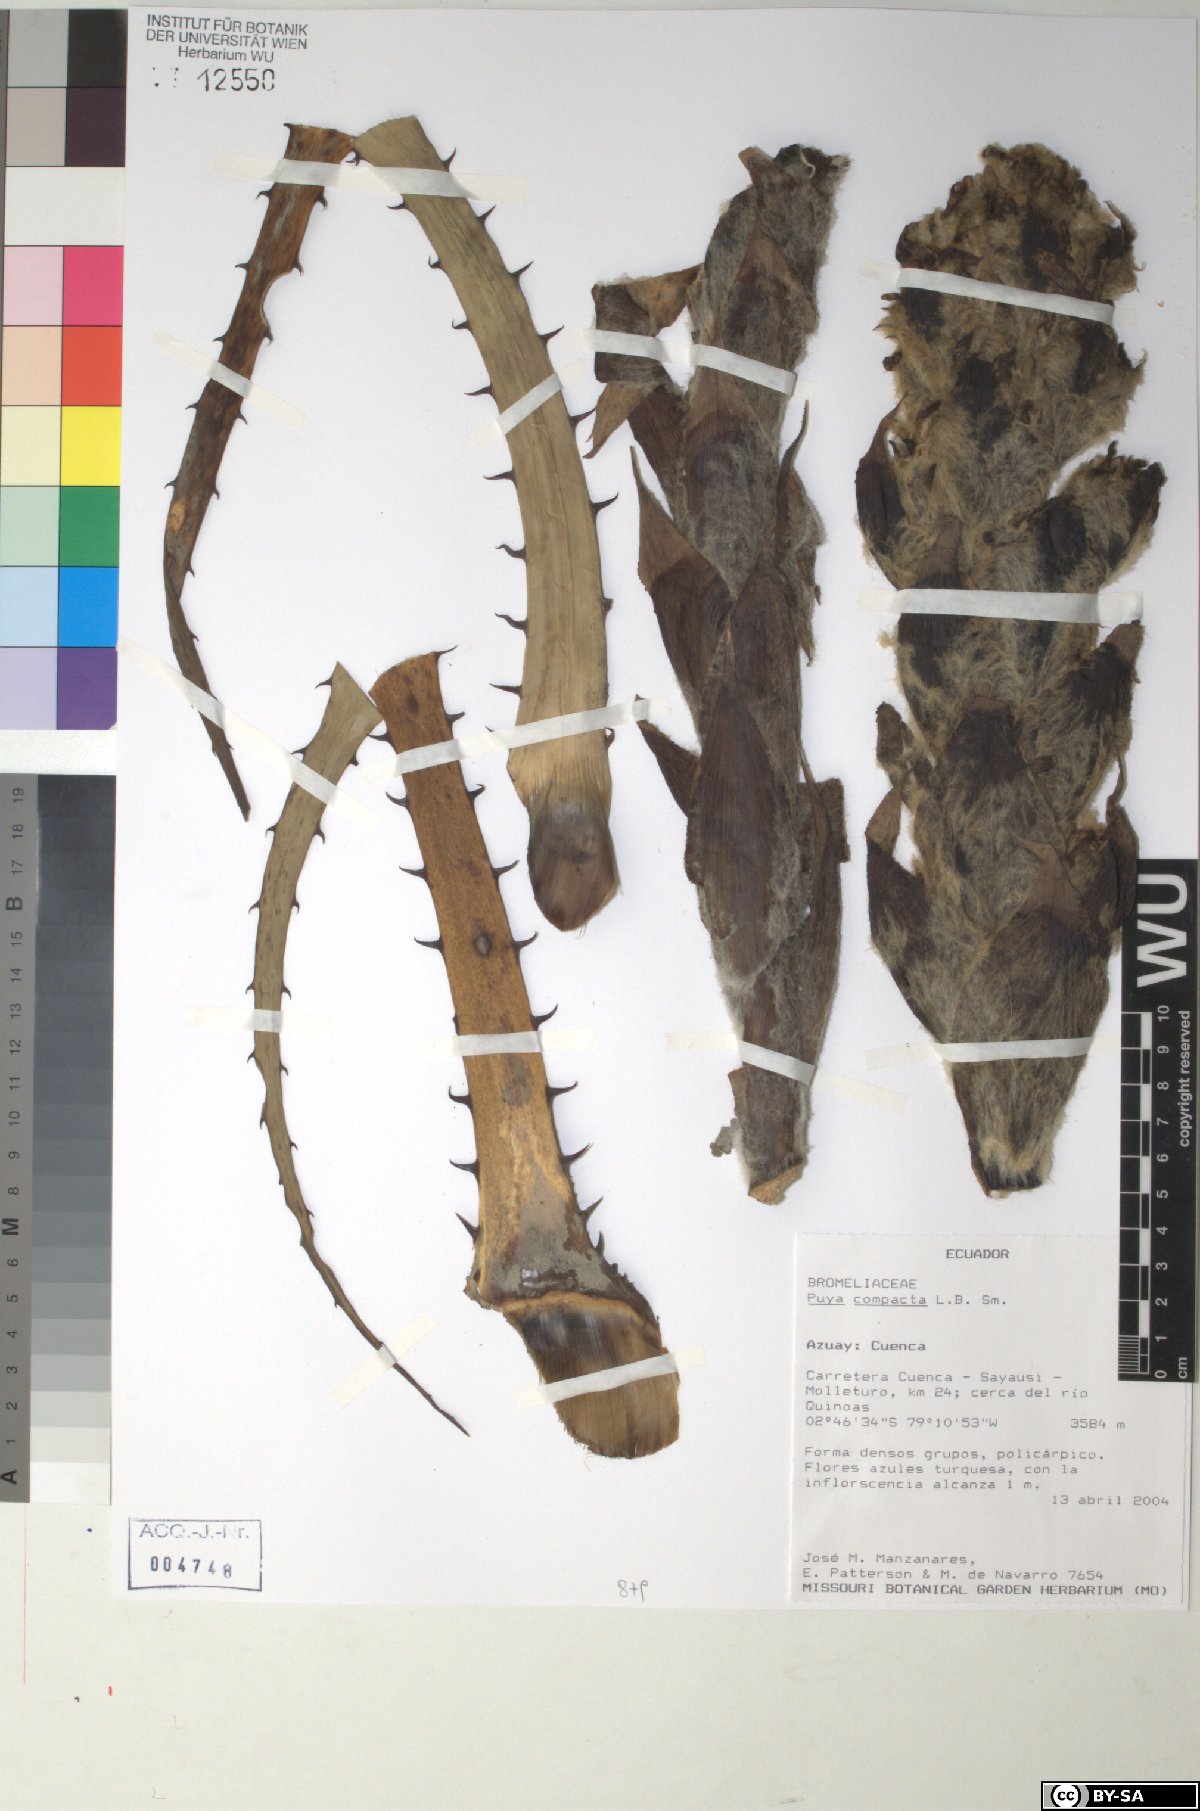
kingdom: Plantae
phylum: Tracheophyta
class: Liliopsida
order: Poales
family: Bromeliaceae
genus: Puya
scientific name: Puya compacta
